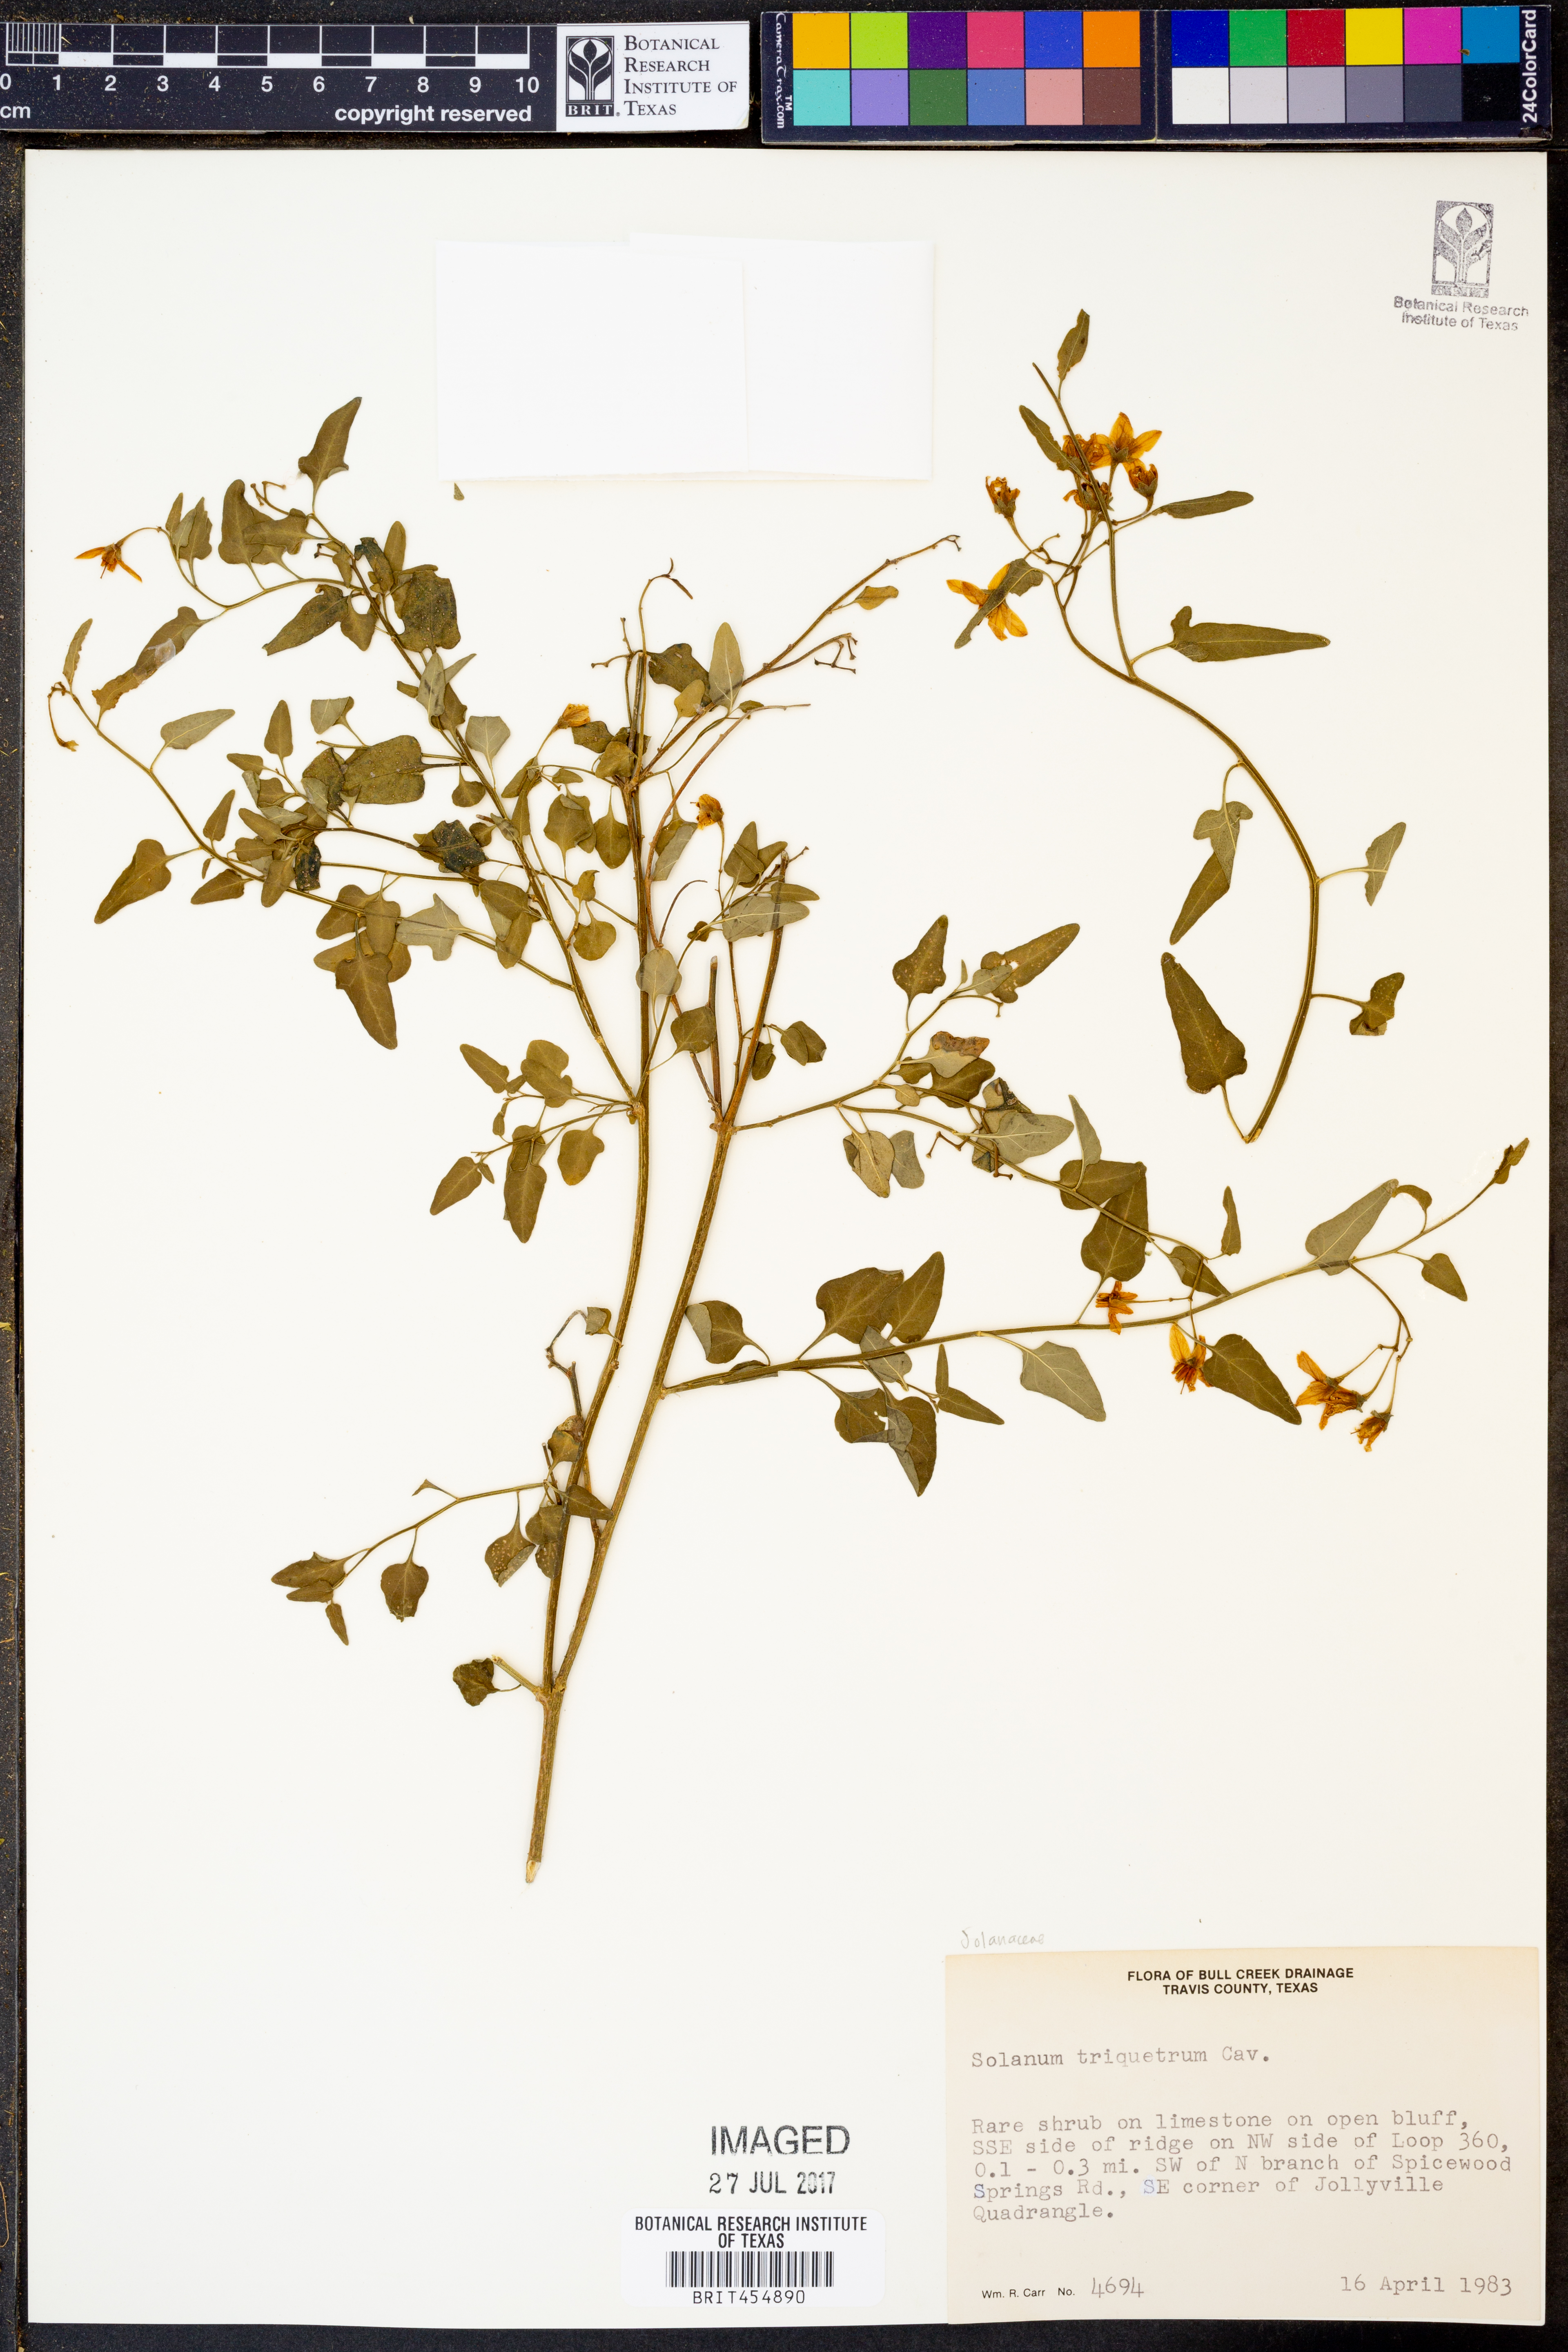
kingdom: Plantae
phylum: Tracheophyta
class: Magnoliopsida
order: Solanales
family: Solanaceae
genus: Solanum
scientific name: Solanum triquetrum
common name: Texas nightshade
